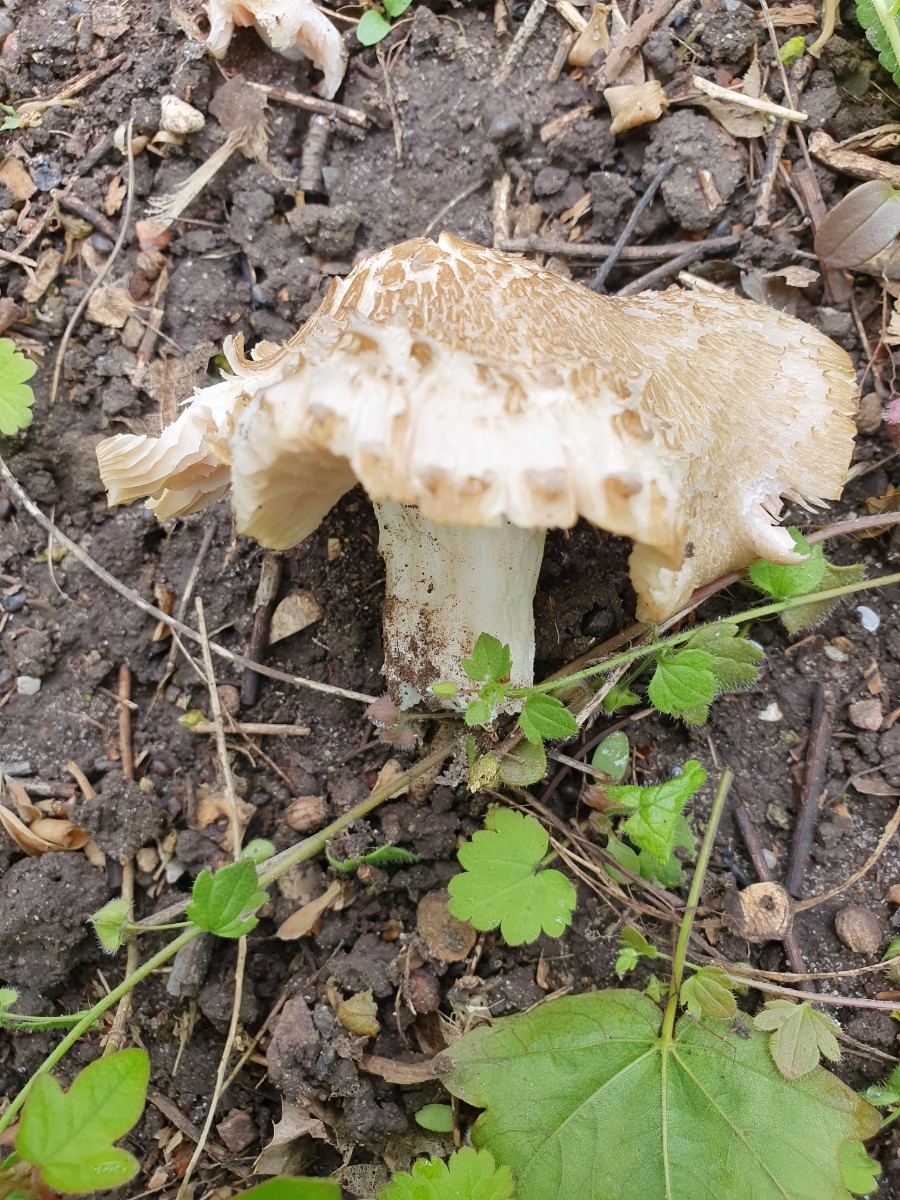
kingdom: Fungi
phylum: Basidiomycota
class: Agaricomycetes
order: Agaricales
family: Entolomataceae
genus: Entoloma
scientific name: Entoloma clypeatum
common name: flammet rødblad
